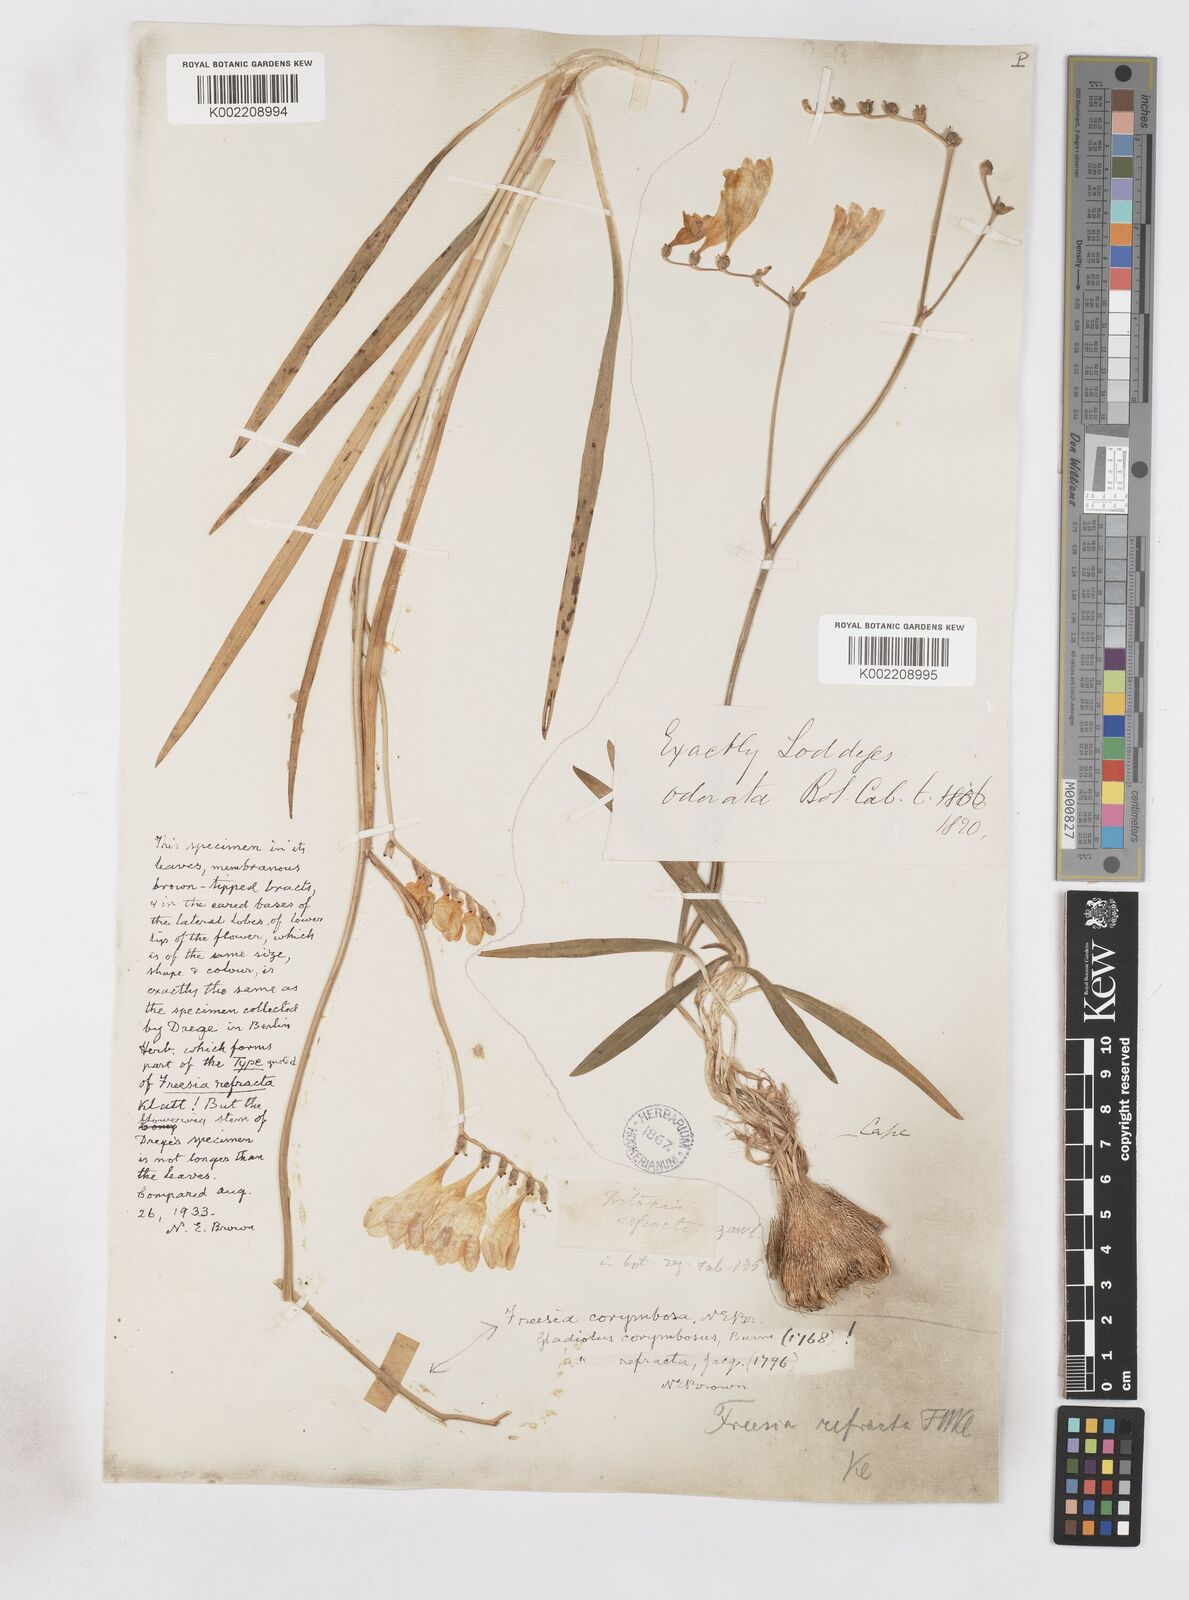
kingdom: Plantae
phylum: Tracheophyta
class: Liliopsida
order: Asparagales
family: Iridaceae
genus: Freesia
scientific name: Freesia corymbosa
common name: Common freesia
